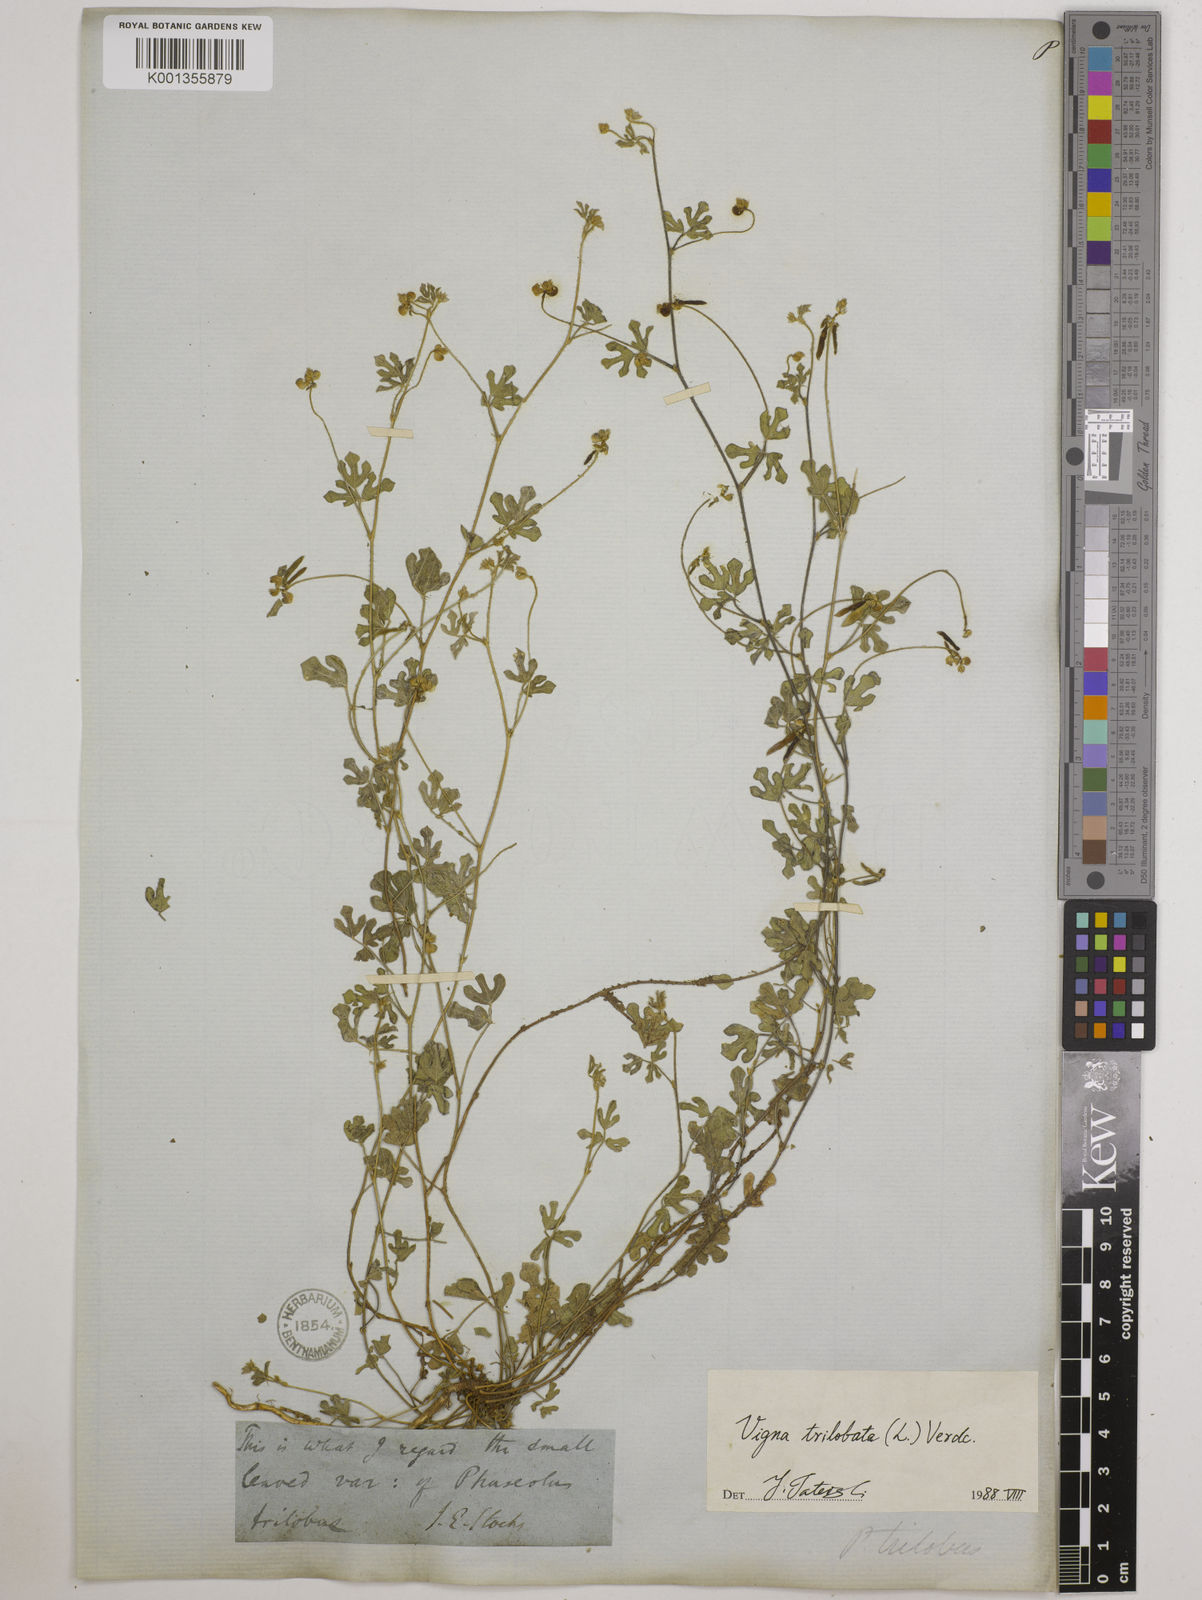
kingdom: Plantae
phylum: Tracheophyta
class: Magnoliopsida
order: Fabales
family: Fabaceae
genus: Vigna
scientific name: Vigna trilobata
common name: Jungli-bean
